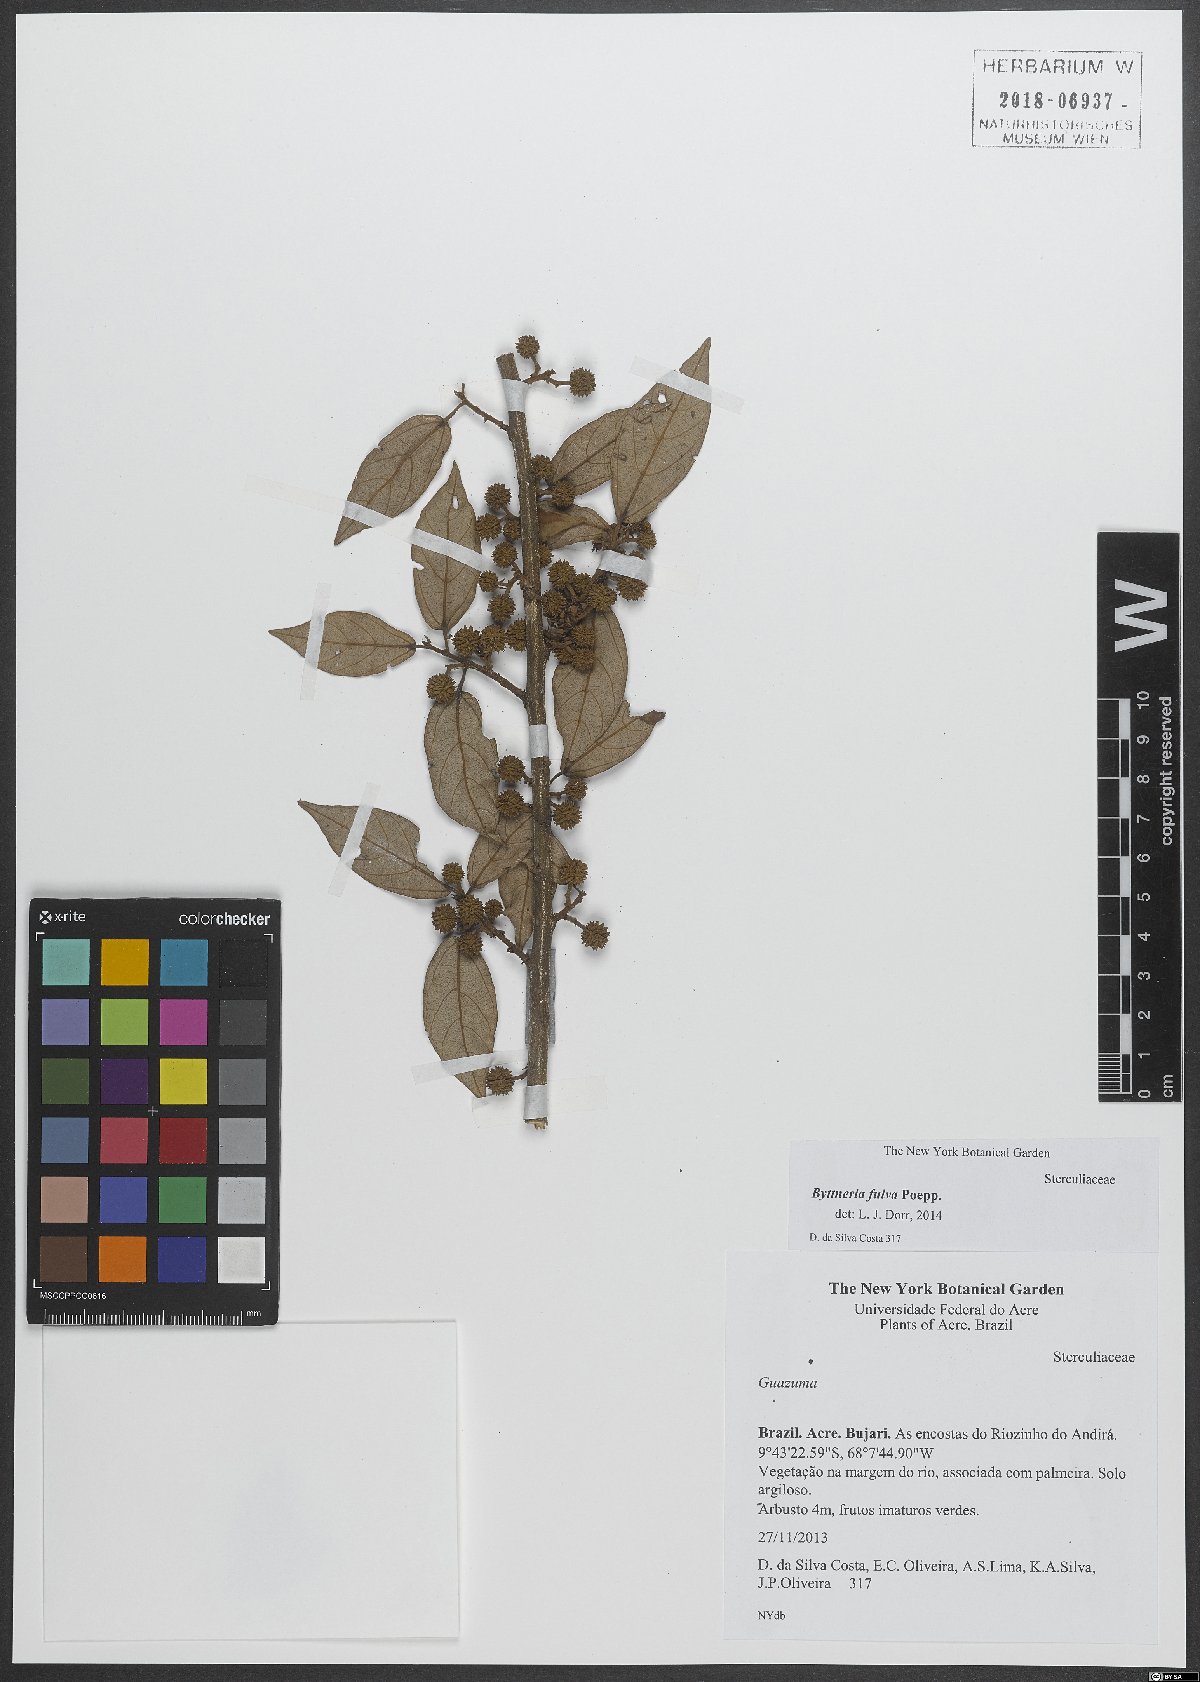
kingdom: Plantae
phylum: Tracheophyta
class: Magnoliopsida
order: Malvales
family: Malvaceae
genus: Byttneria
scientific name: Byttneria fulva
